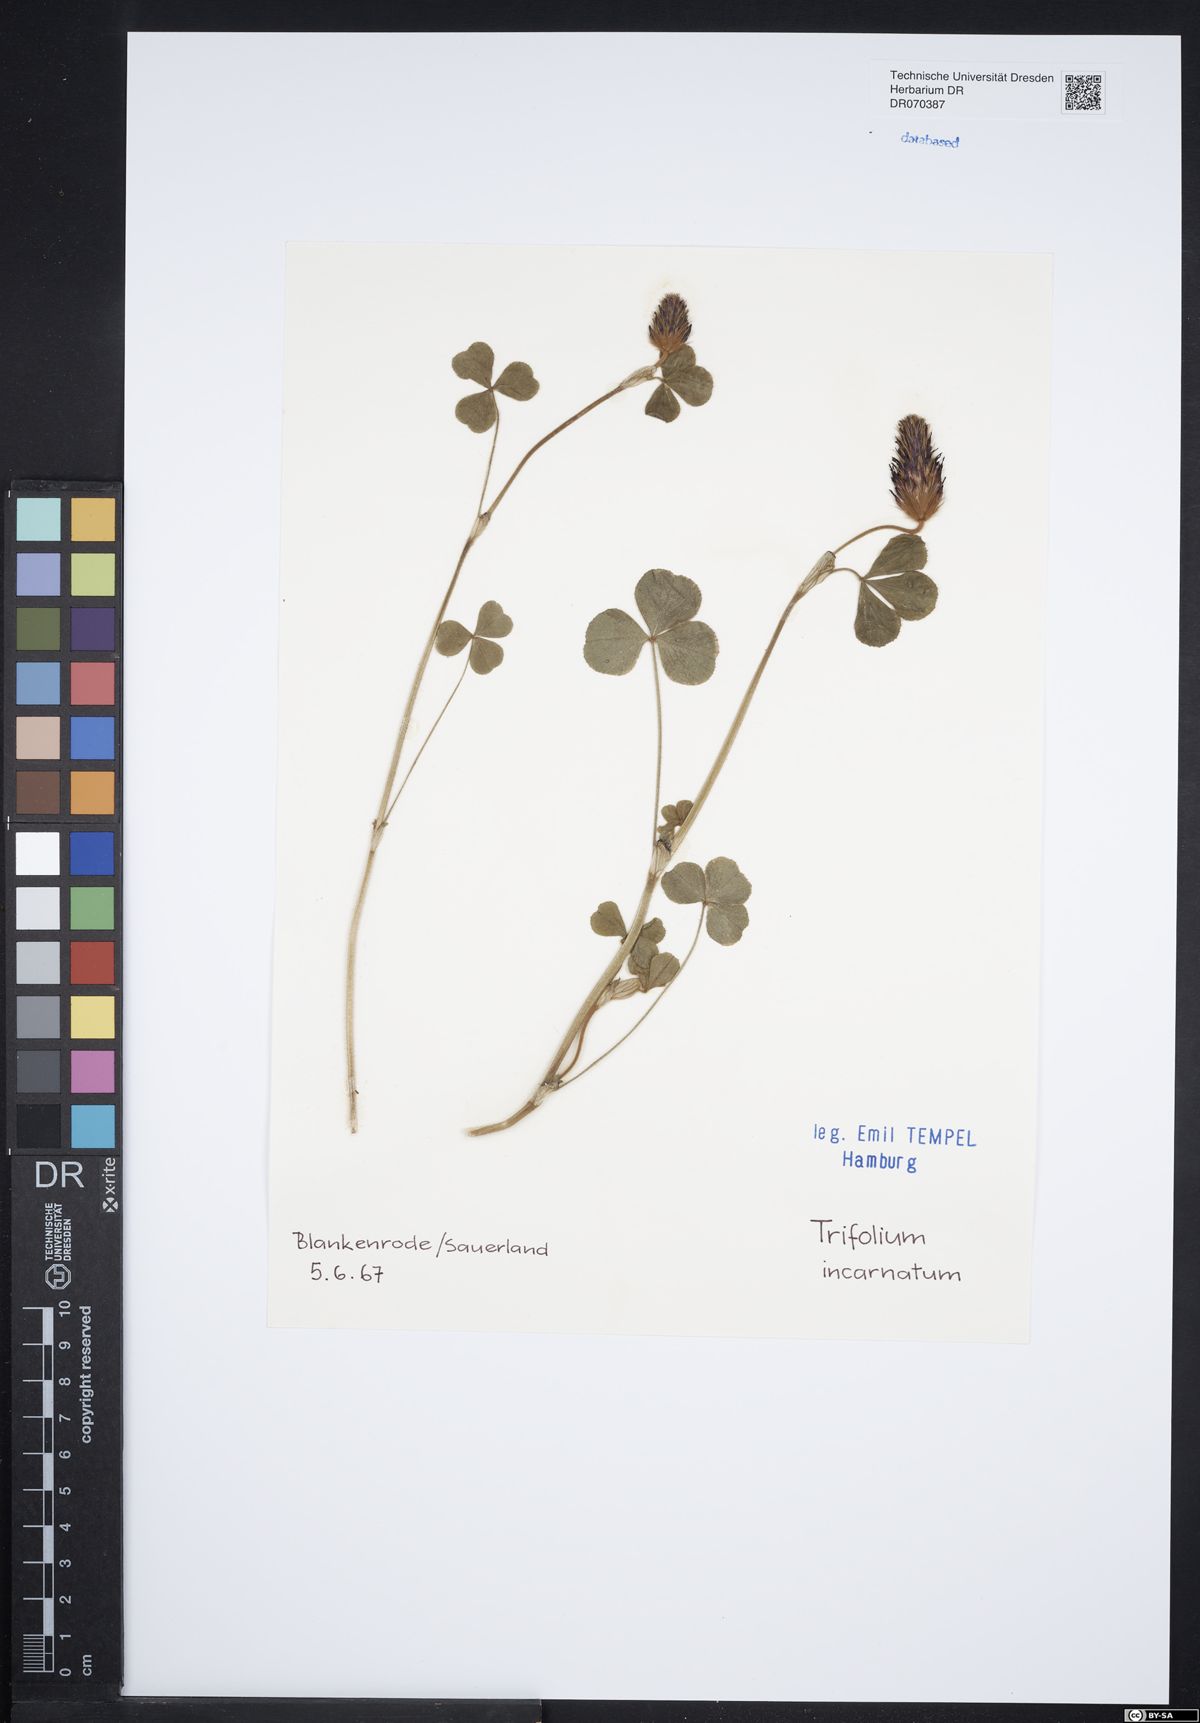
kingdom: Plantae
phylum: Tracheophyta
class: Magnoliopsida
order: Fabales
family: Fabaceae
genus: Trifolium
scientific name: Trifolium incarnatum
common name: Crimson clover
